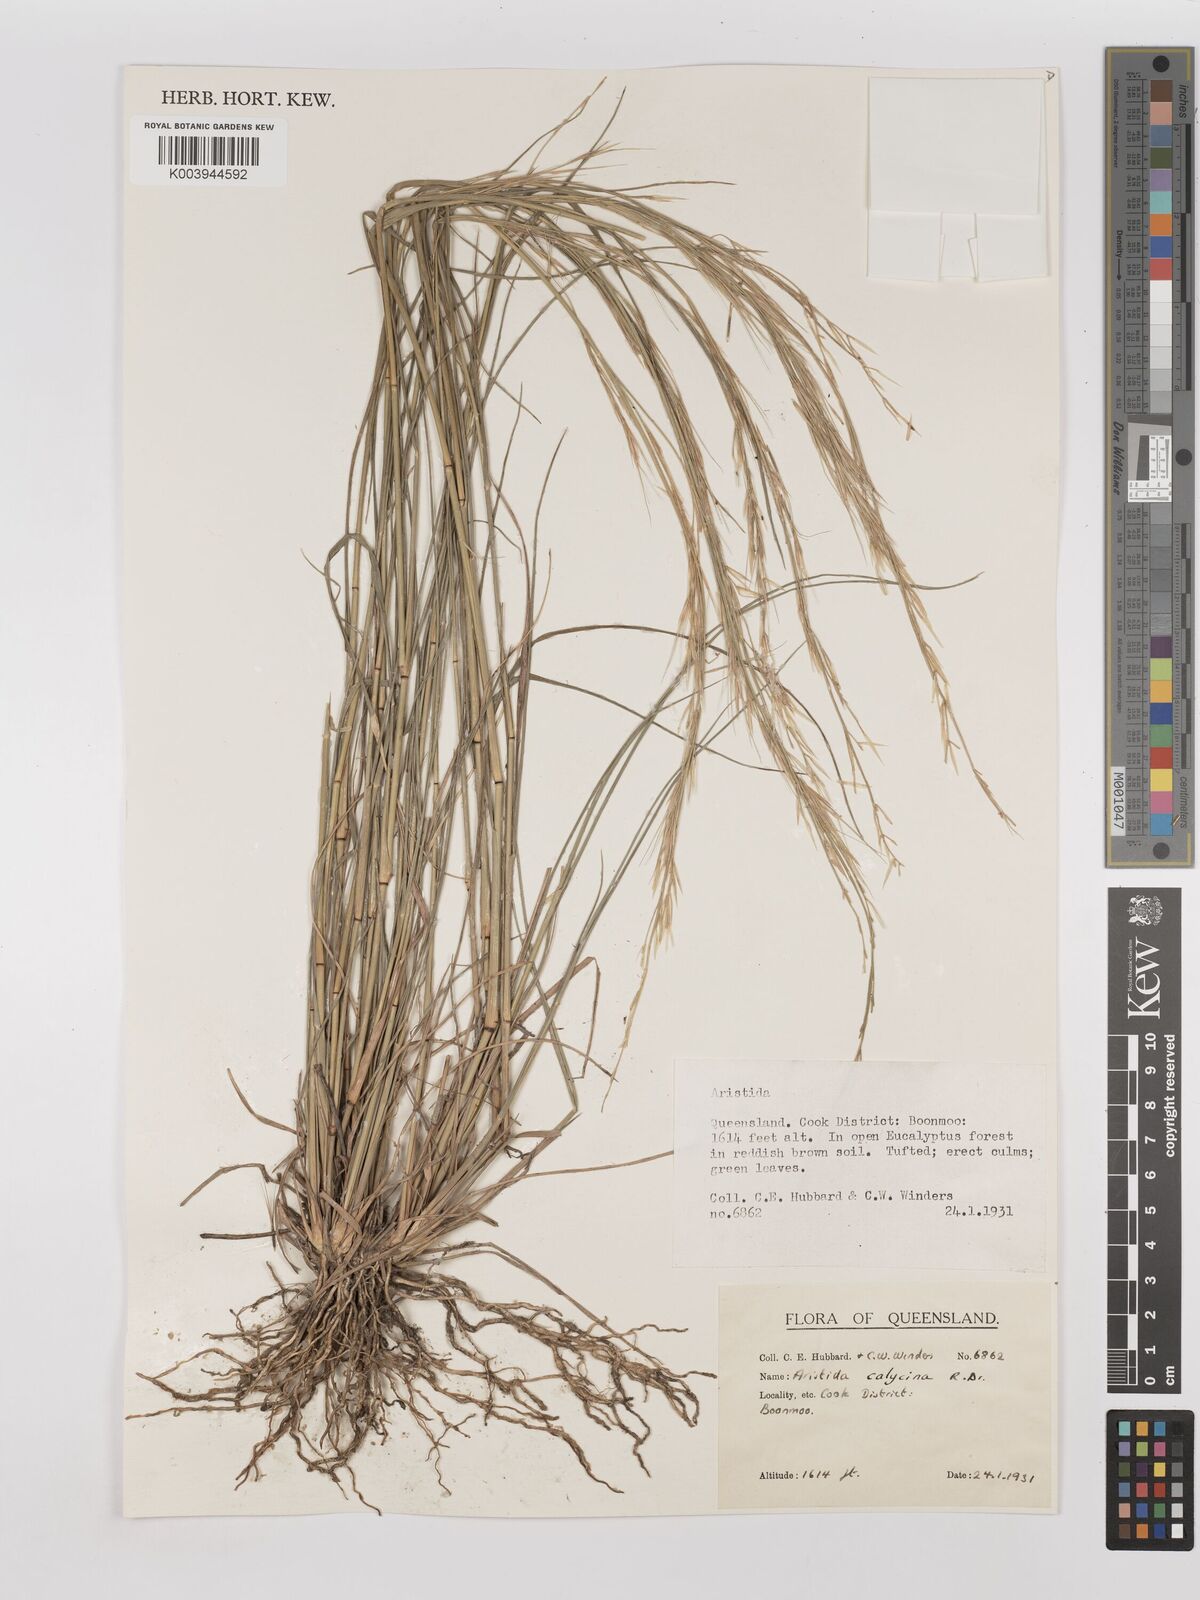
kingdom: Plantae
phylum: Tracheophyta
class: Liliopsida
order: Poales
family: Poaceae
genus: Aristida
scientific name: Aristida calycina
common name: Dark wire grass
